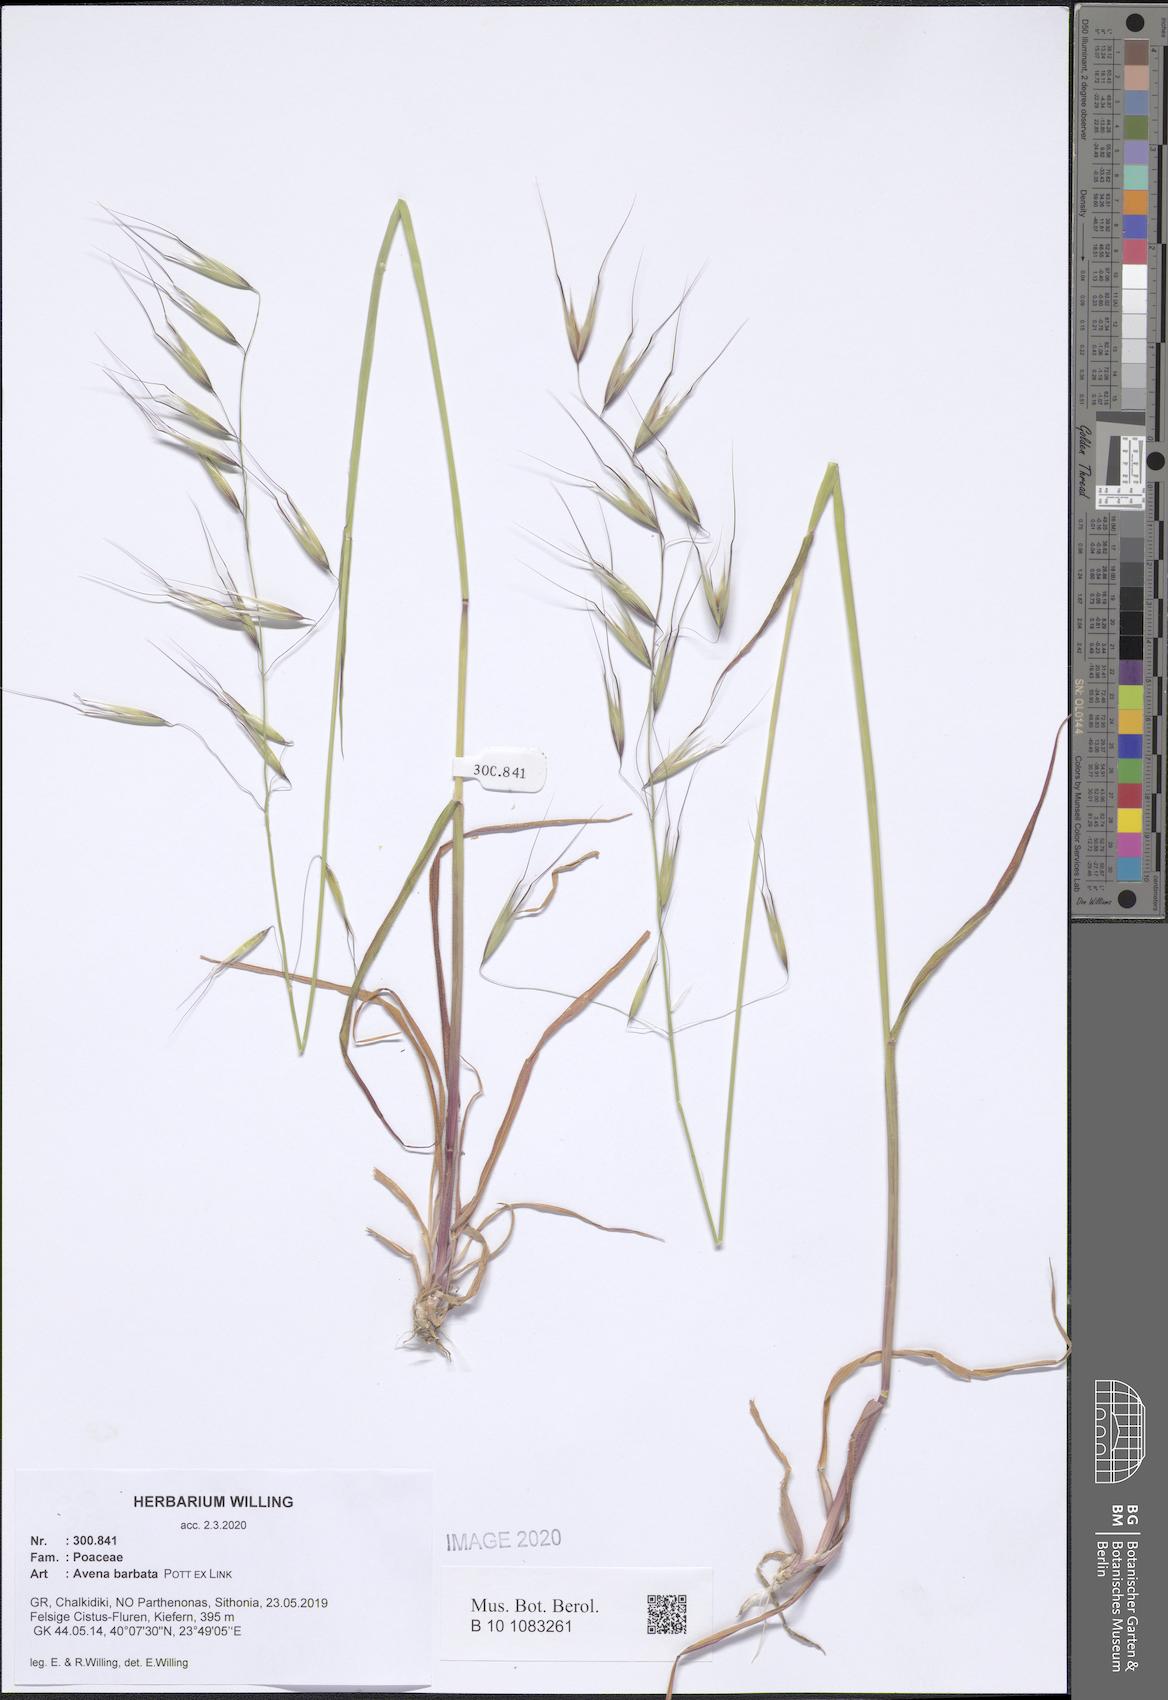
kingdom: Plantae
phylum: Tracheophyta
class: Liliopsida
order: Poales
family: Poaceae
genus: Avena
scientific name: Avena barbata
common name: Slender oat
